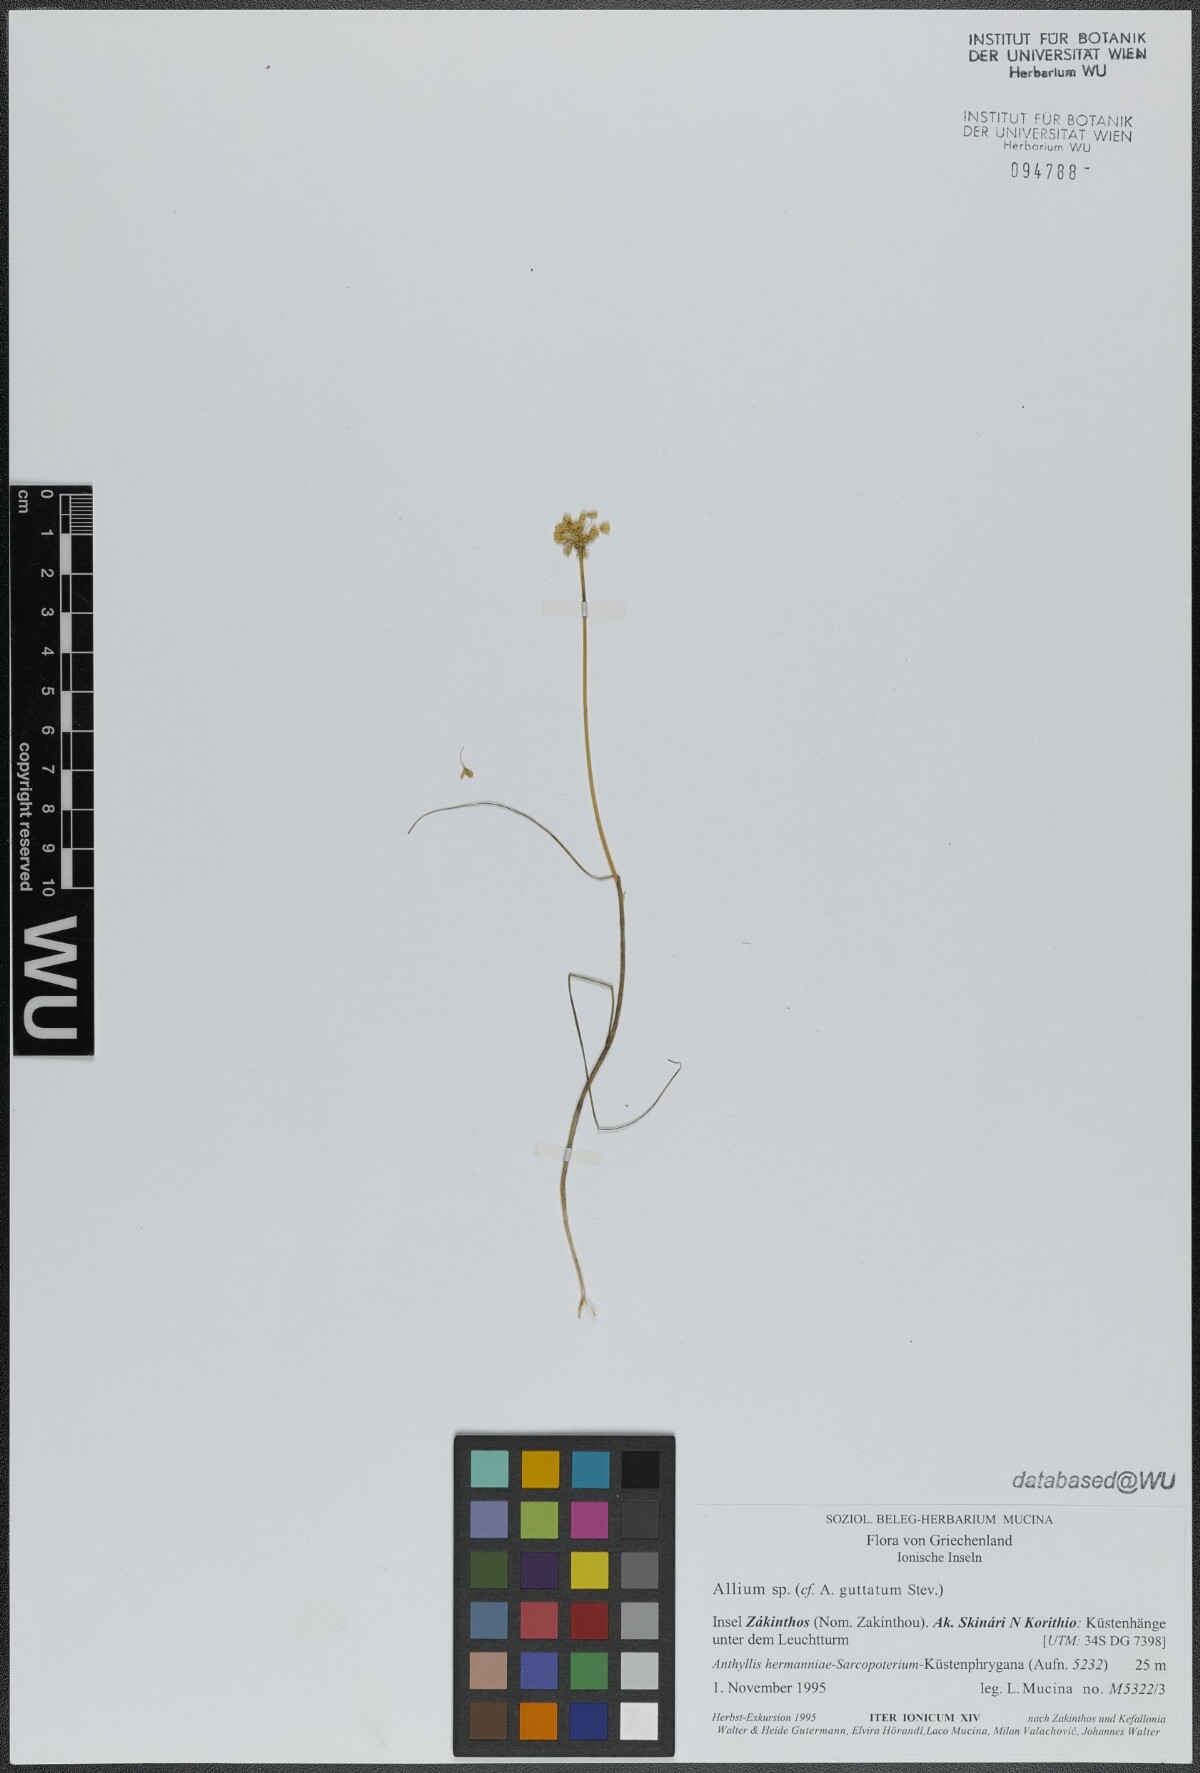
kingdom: Plantae
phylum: Tracheophyta
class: Liliopsida
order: Asparagales
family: Amaryllidaceae
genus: Allium
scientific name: Allium guttatum
